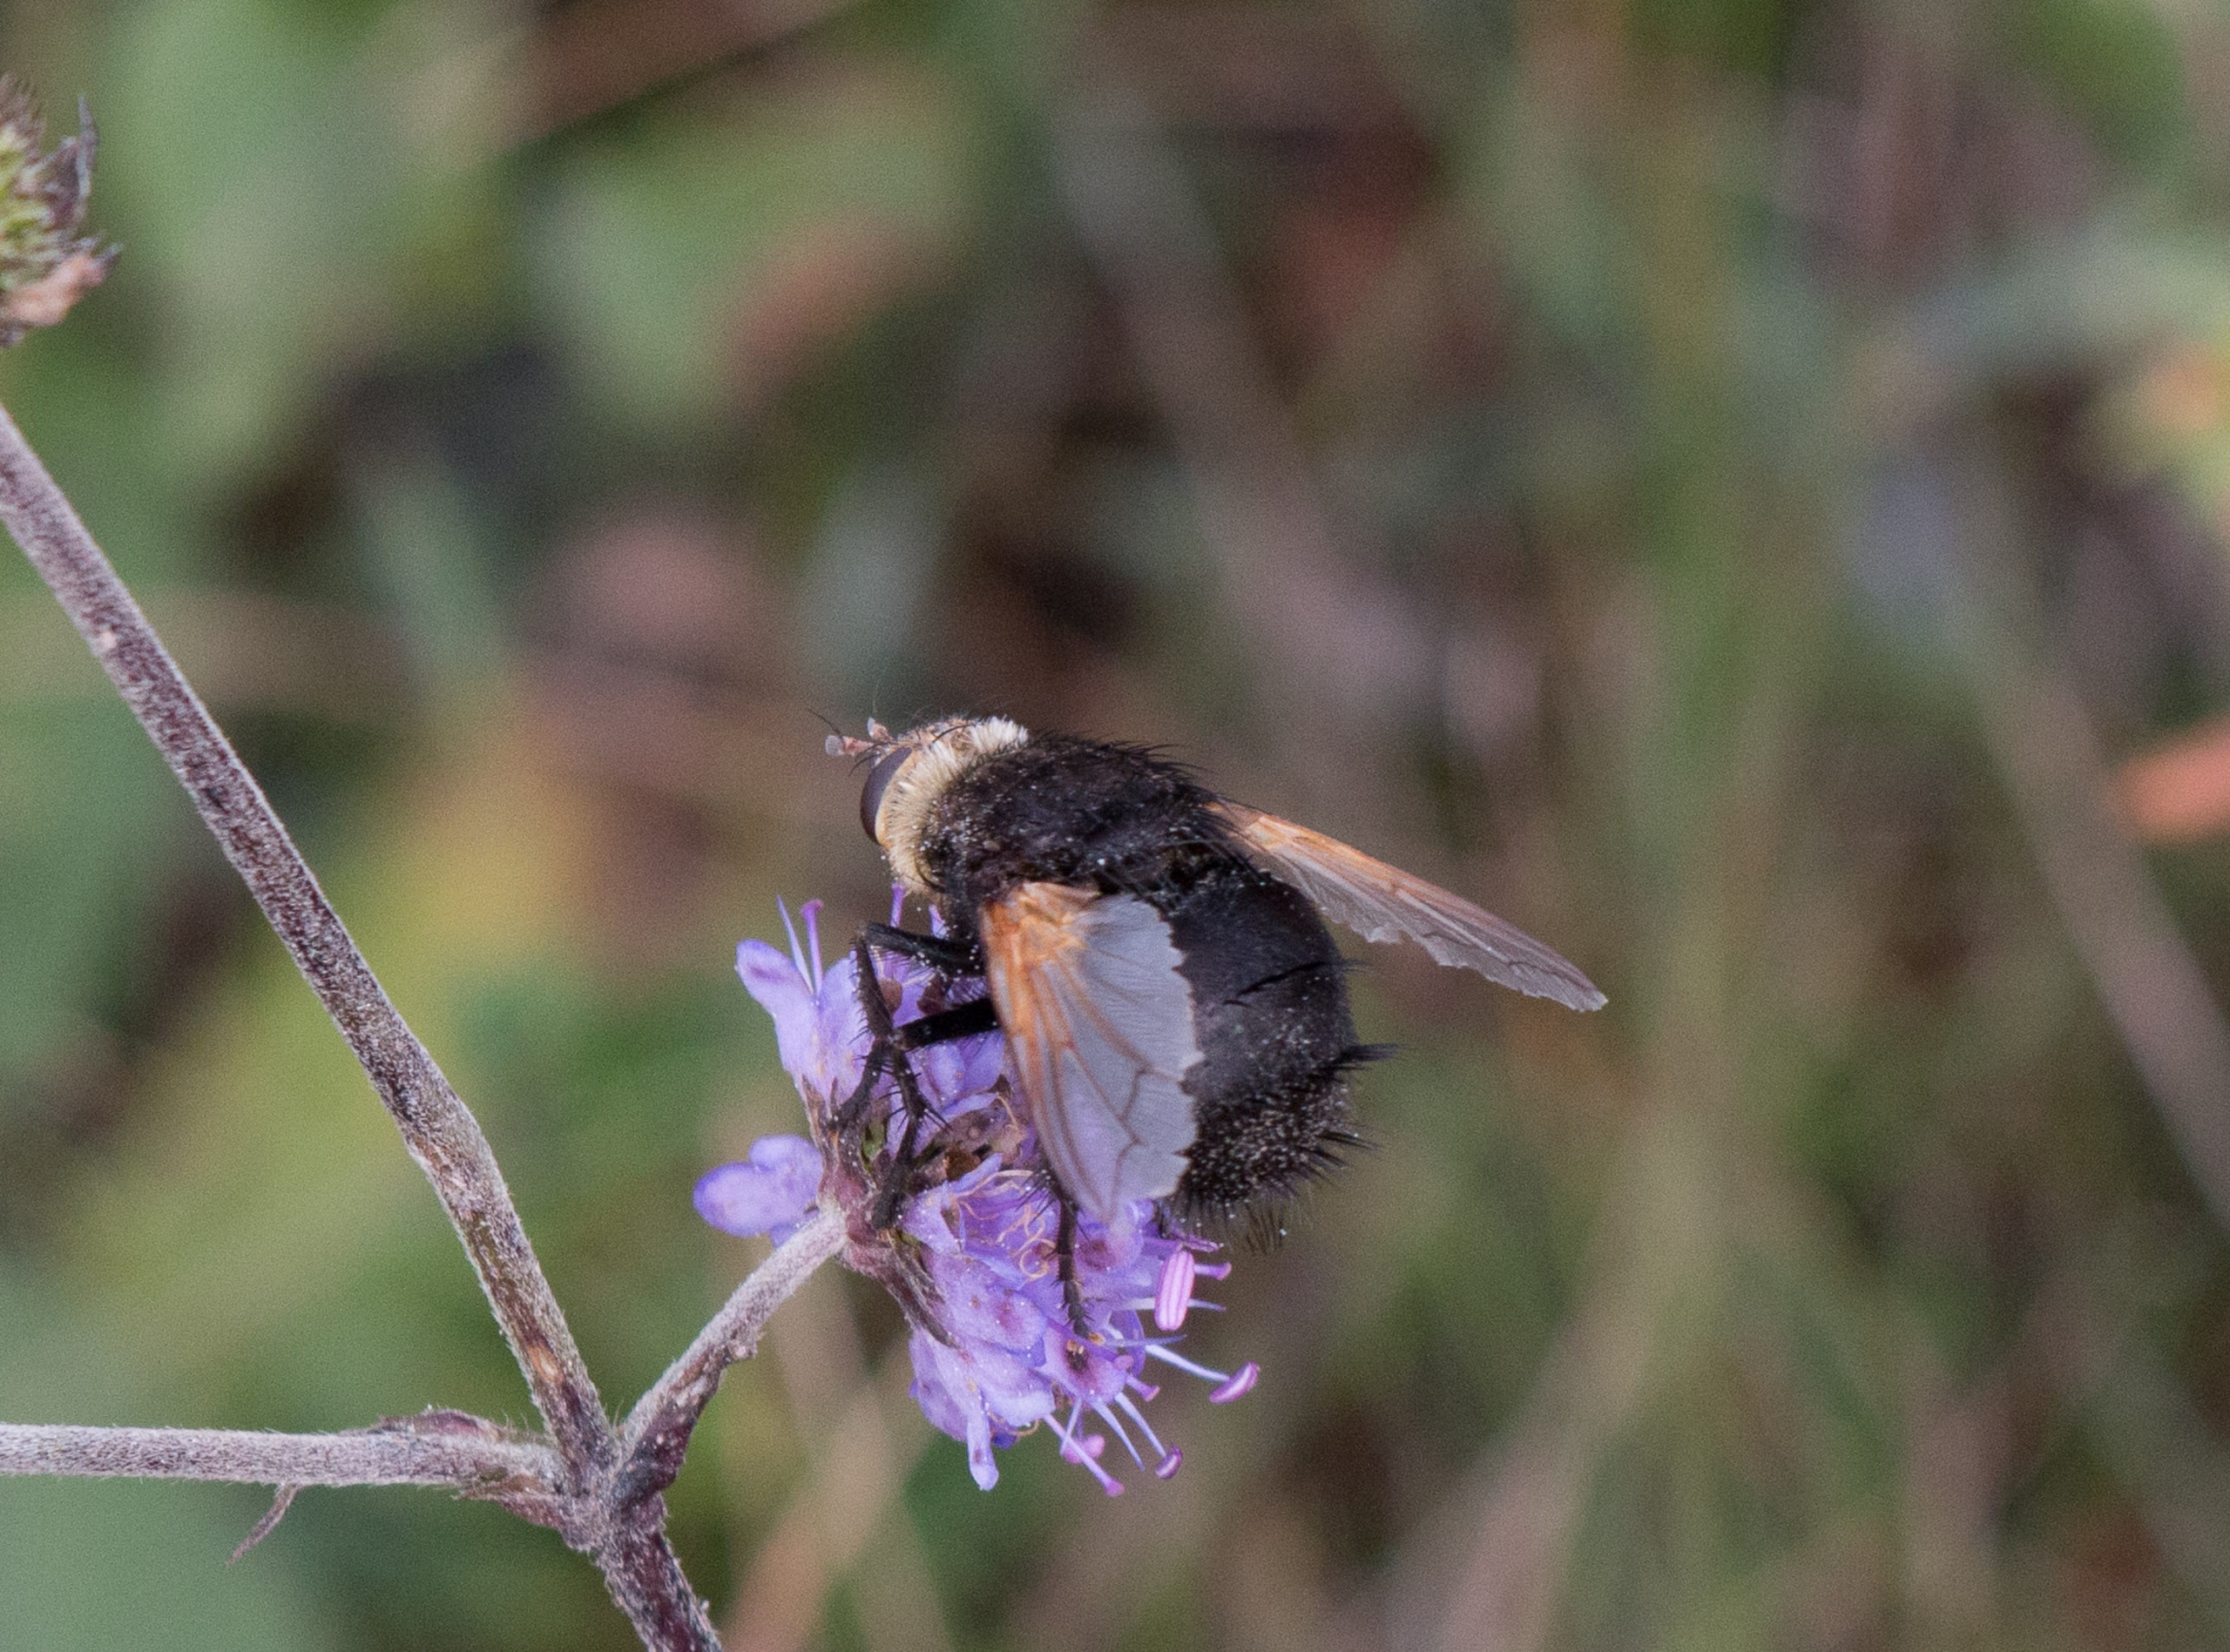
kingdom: Animalia
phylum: Arthropoda
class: Insecta
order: Diptera
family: Tachinidae
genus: Tachina
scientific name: Tachina grossa
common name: Kæmpefluen Harald
